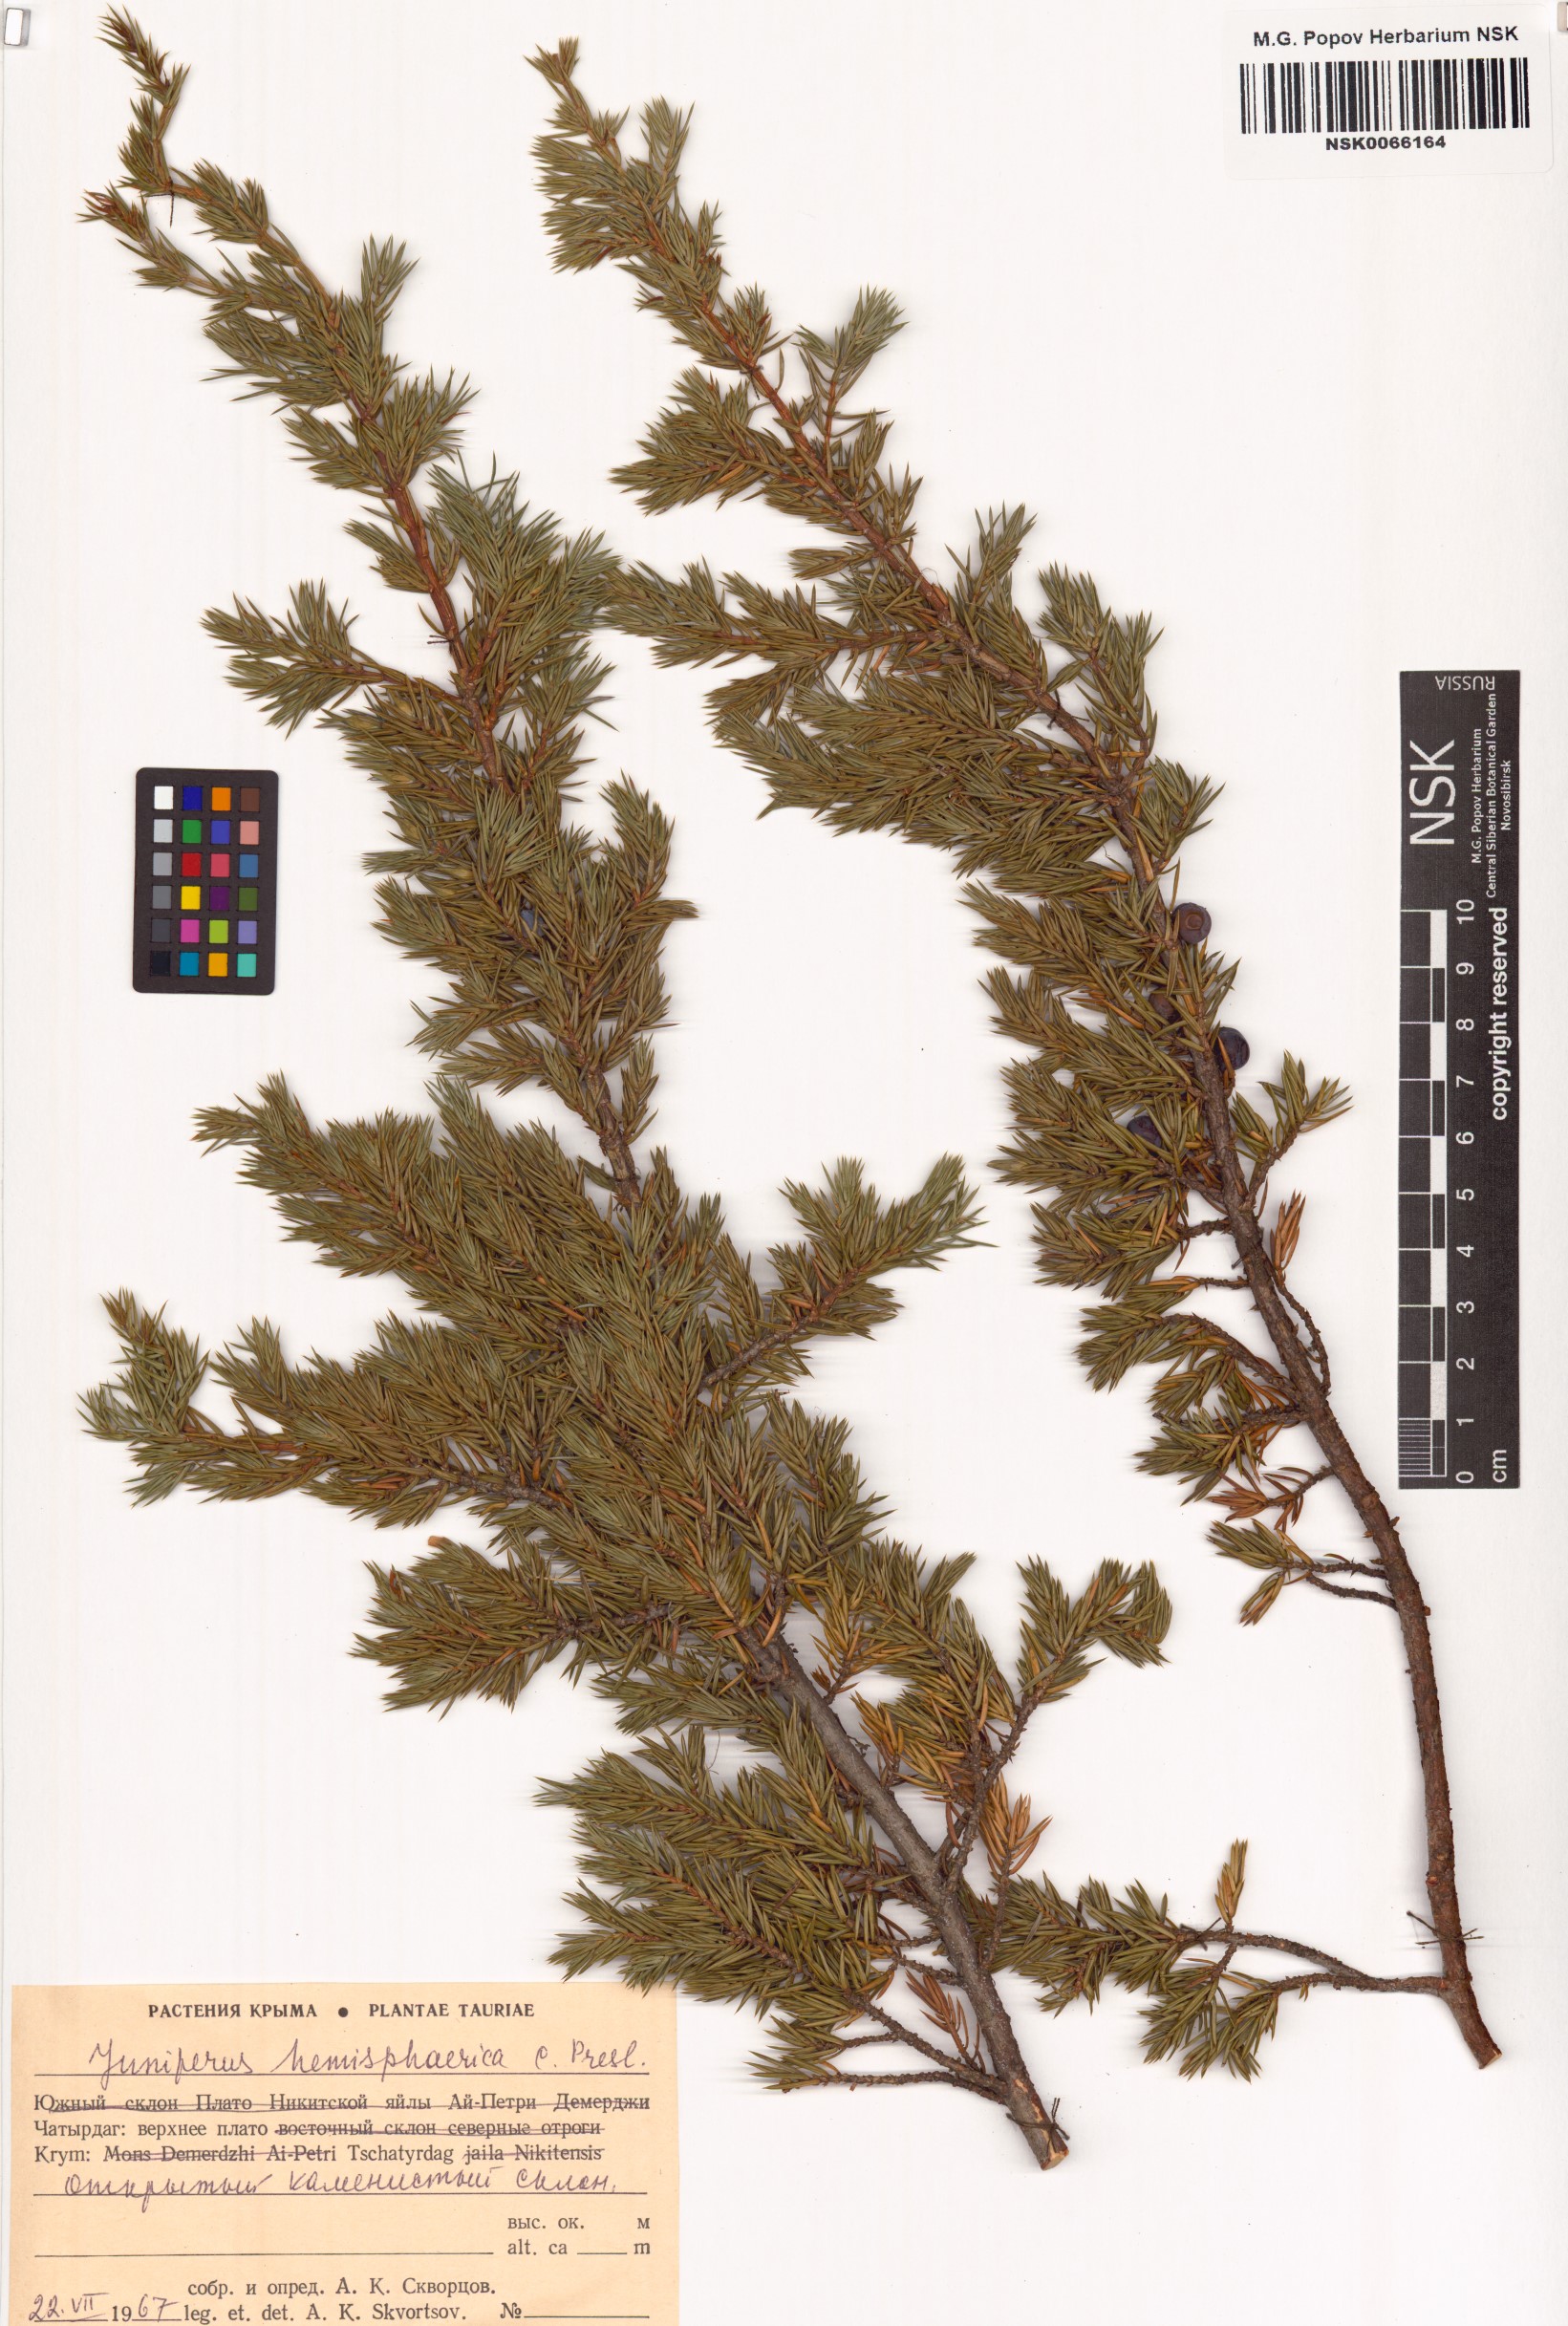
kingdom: Plantae
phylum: Tracheophyta
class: Pinopsida
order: Pinales
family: Cupressaceae
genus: Juniperus
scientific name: Juniperus communis
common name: Common juniper
